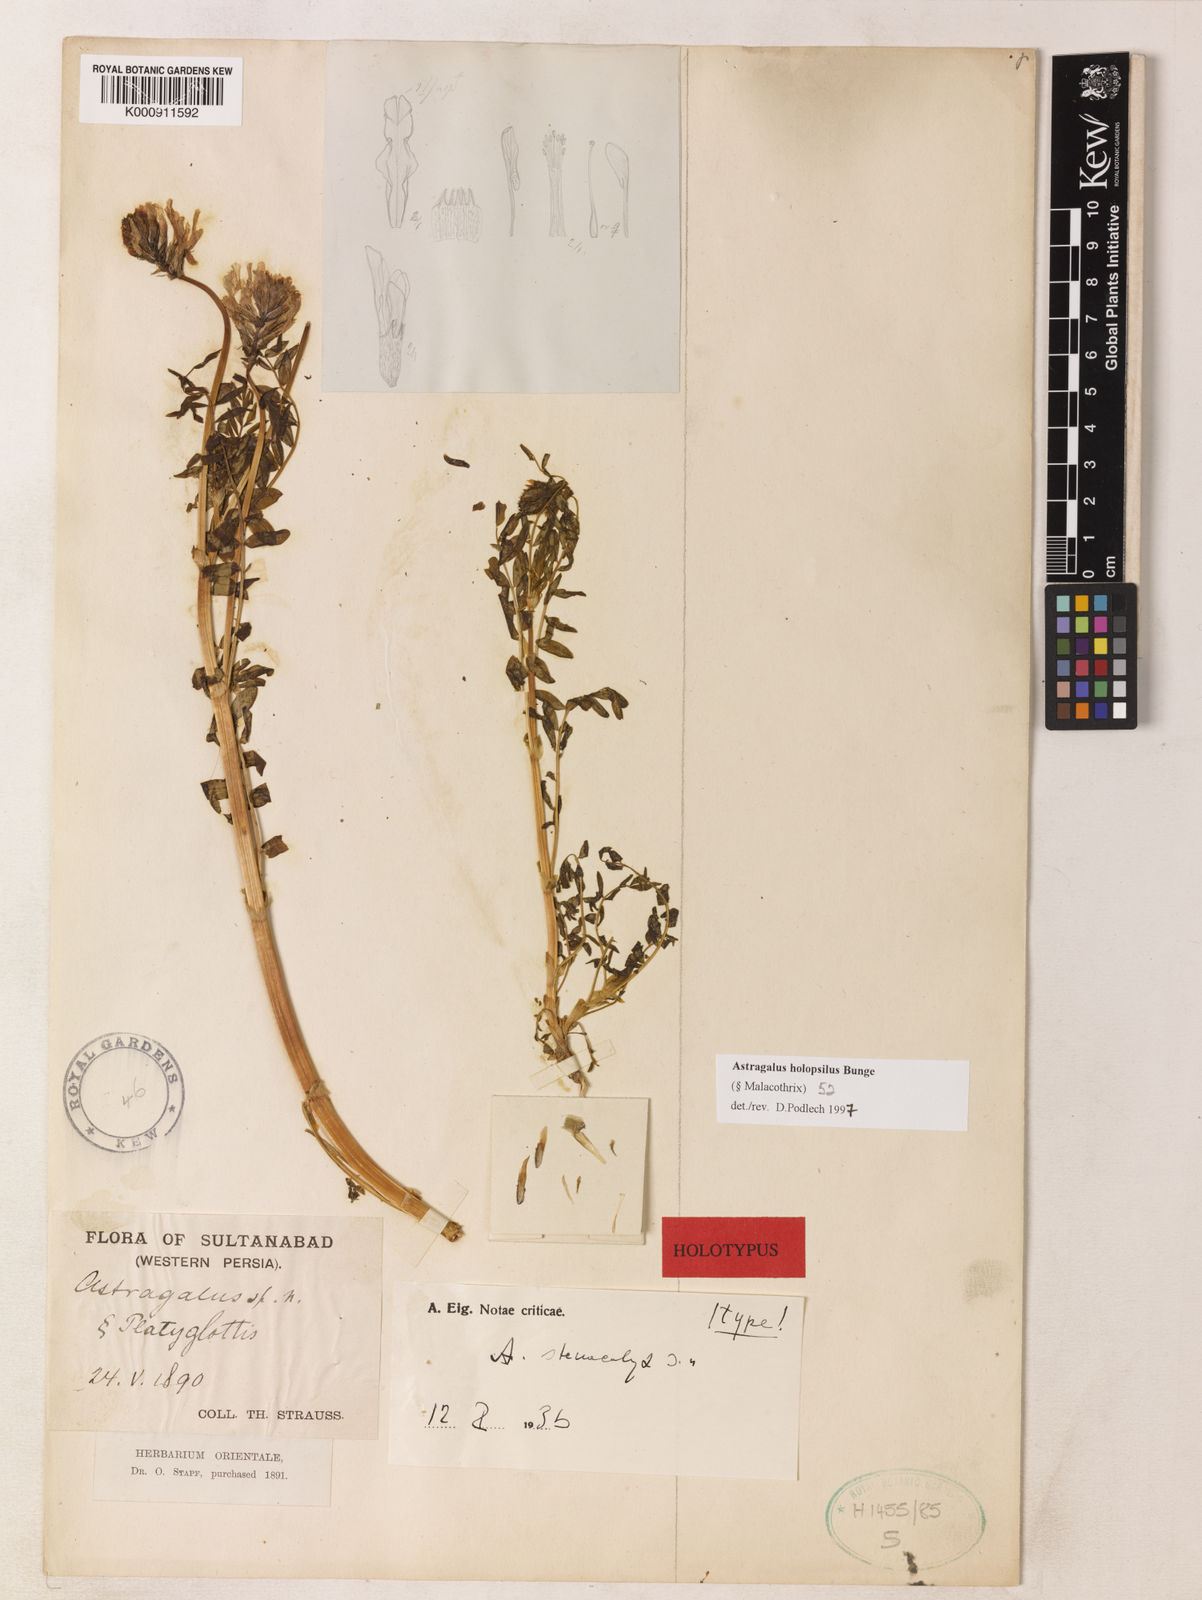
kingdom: Plantae
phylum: Tracheophyta
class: Magnoliopsida
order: Fabales
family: Fabaceae
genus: Astragalus
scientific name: Astragalus holopsilus
